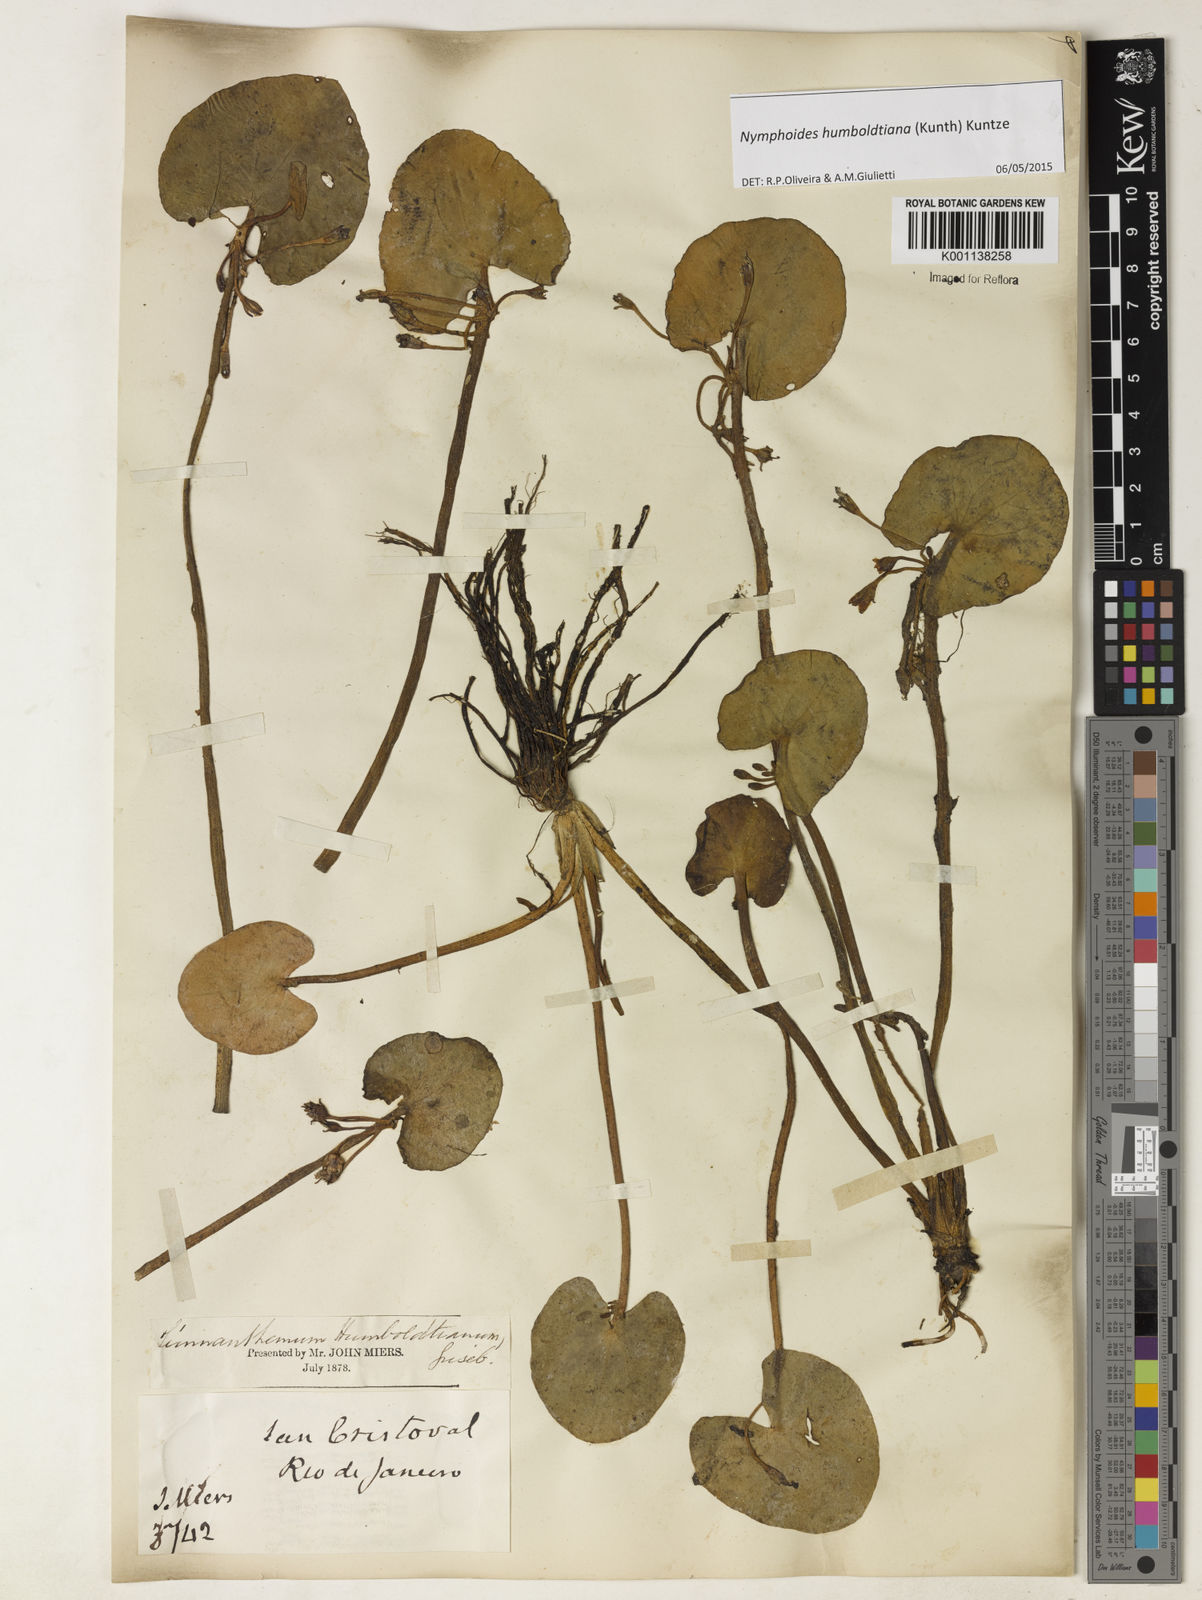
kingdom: Plantae
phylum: Tracheophyta
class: Magnoliopsida
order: Asterales
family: Menyanthaceae
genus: Nymphoides
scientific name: Nymphoides humboldtiana
